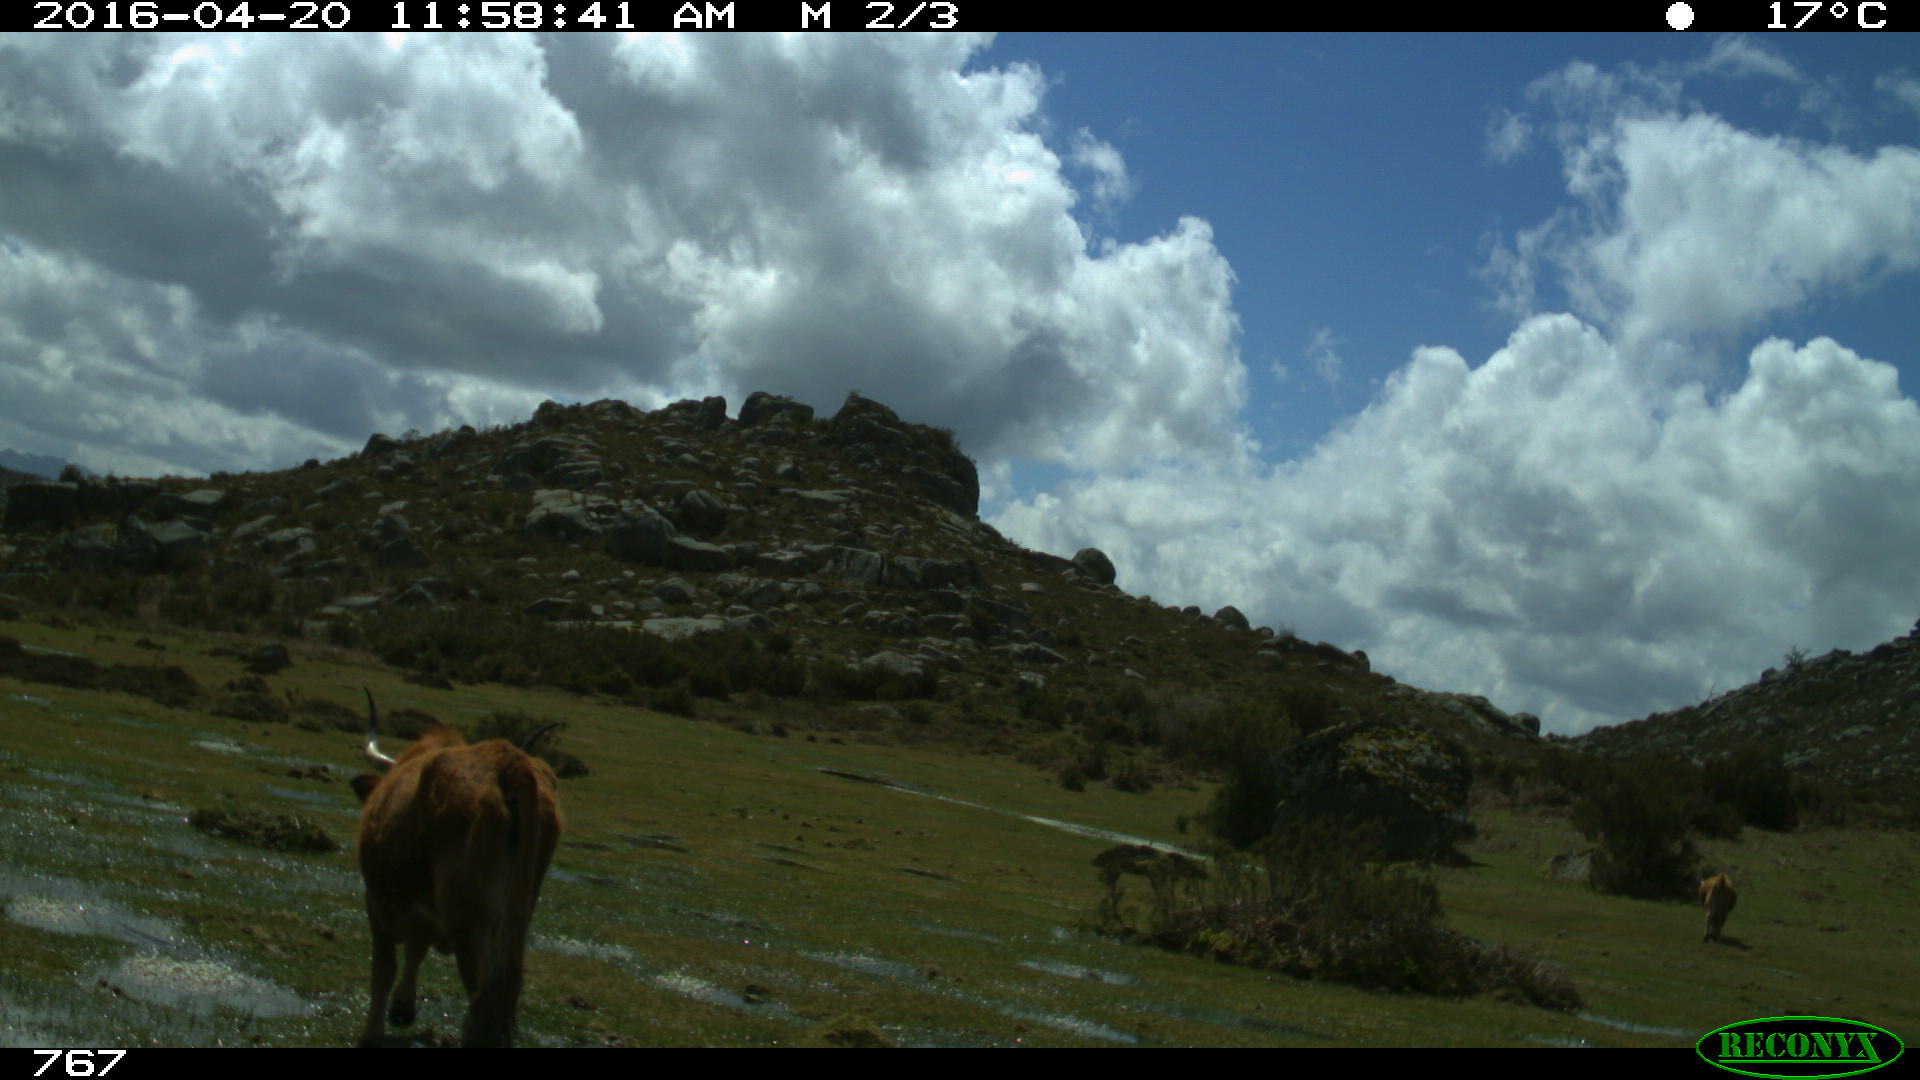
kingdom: Animalia
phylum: Chordata
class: Mammalia
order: Artiodactyla
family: Bovidae
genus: Bos
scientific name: Bos taurus
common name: Domesticated cattle
